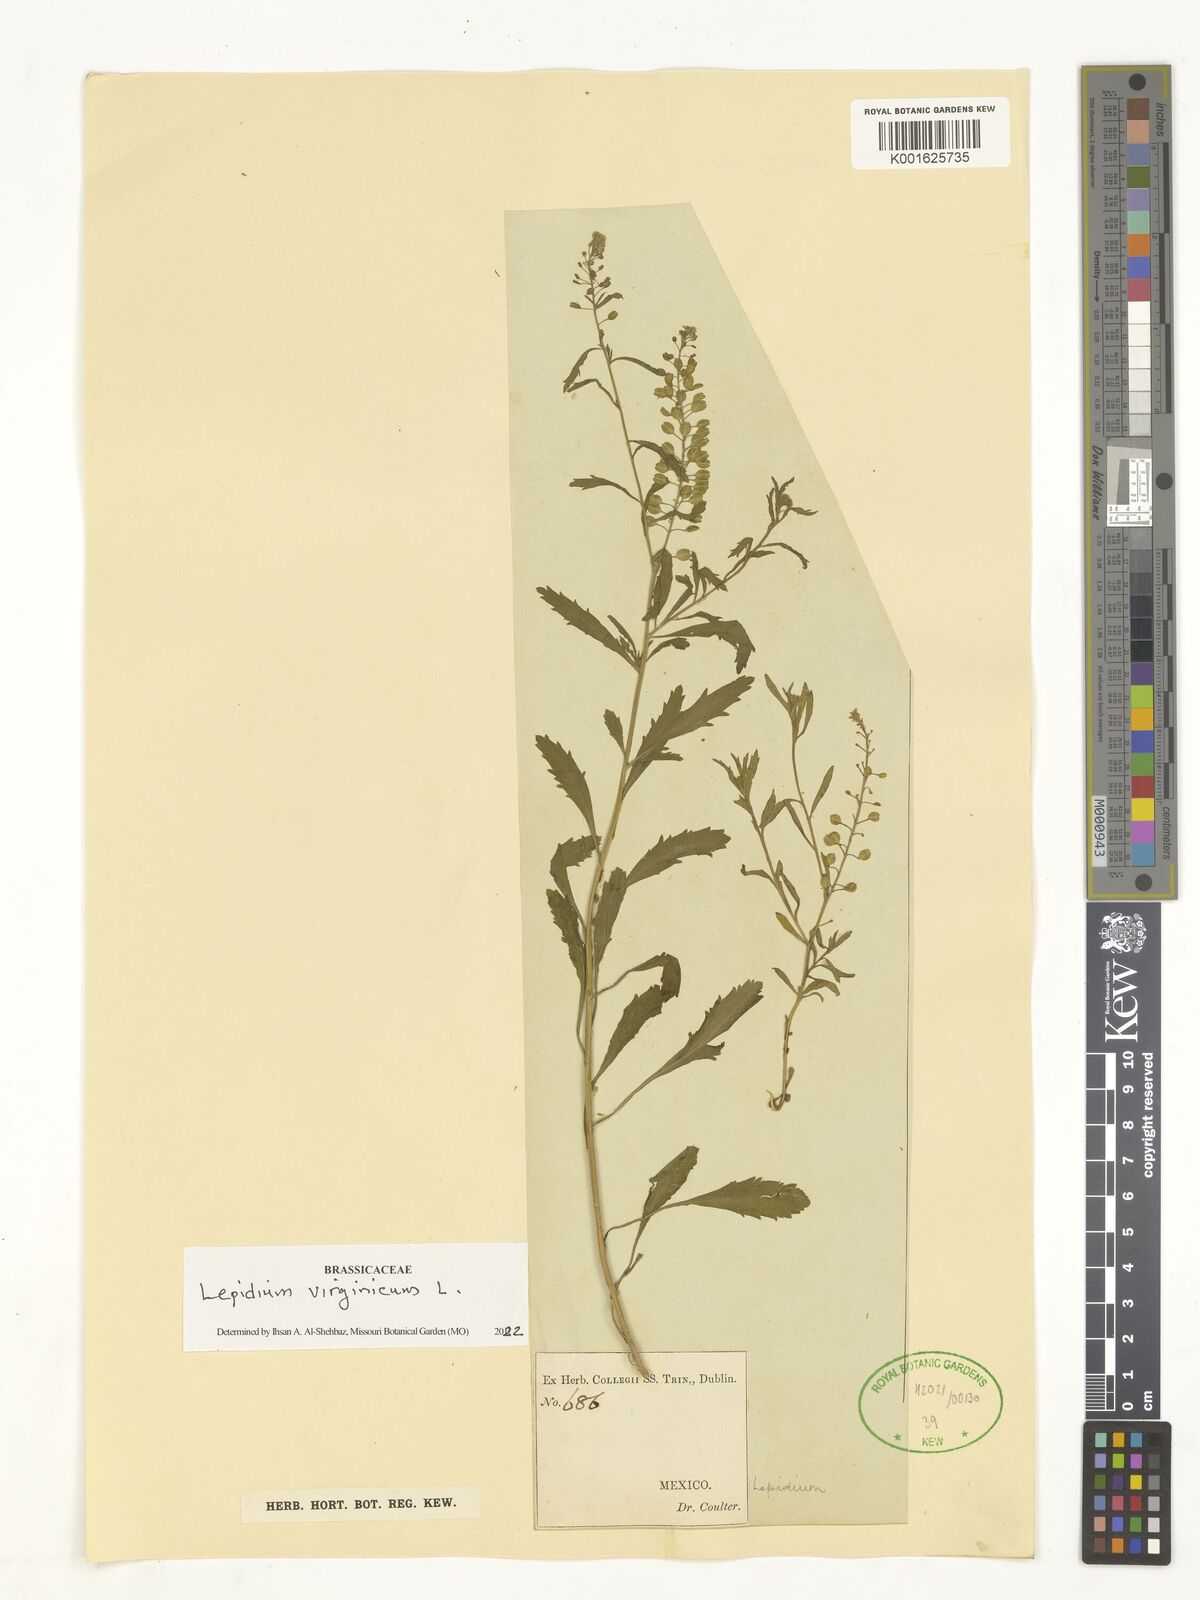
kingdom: Plantae
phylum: Tracheophyta
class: Magnoliopsida
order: Brassicales
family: Brassicaceae
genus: Lepidium
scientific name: Lepidium virginicum
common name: Least pepperwort
